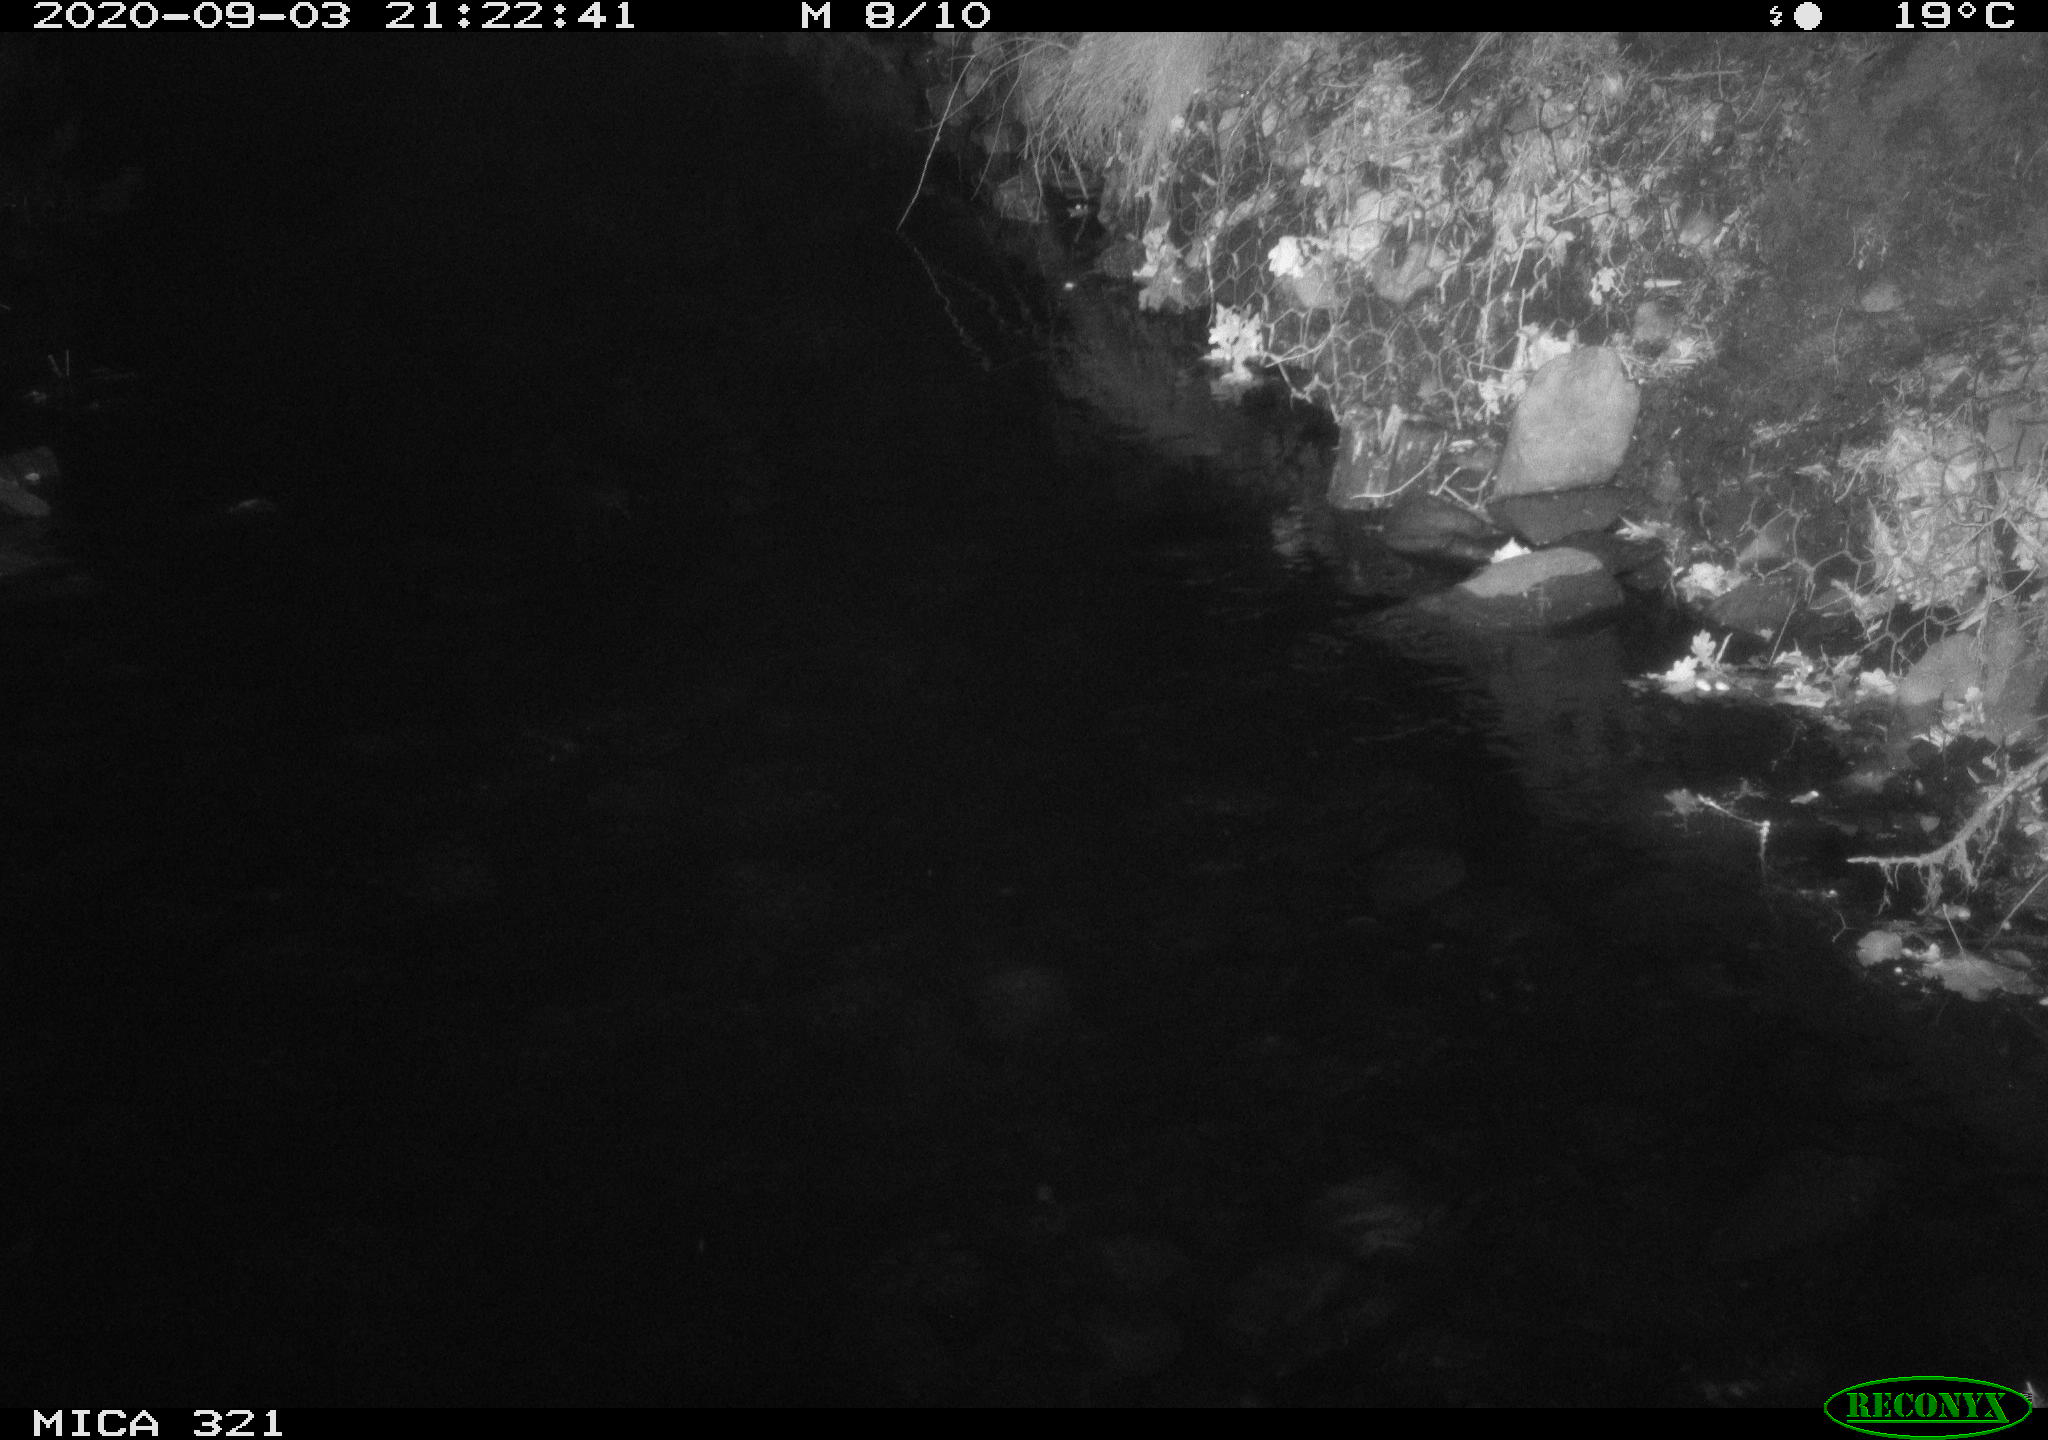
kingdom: Animalia
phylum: Chordata
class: Aves
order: Anseriformes
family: Anatidae
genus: Anas
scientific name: Anas platyrhynchos
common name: Mallard
